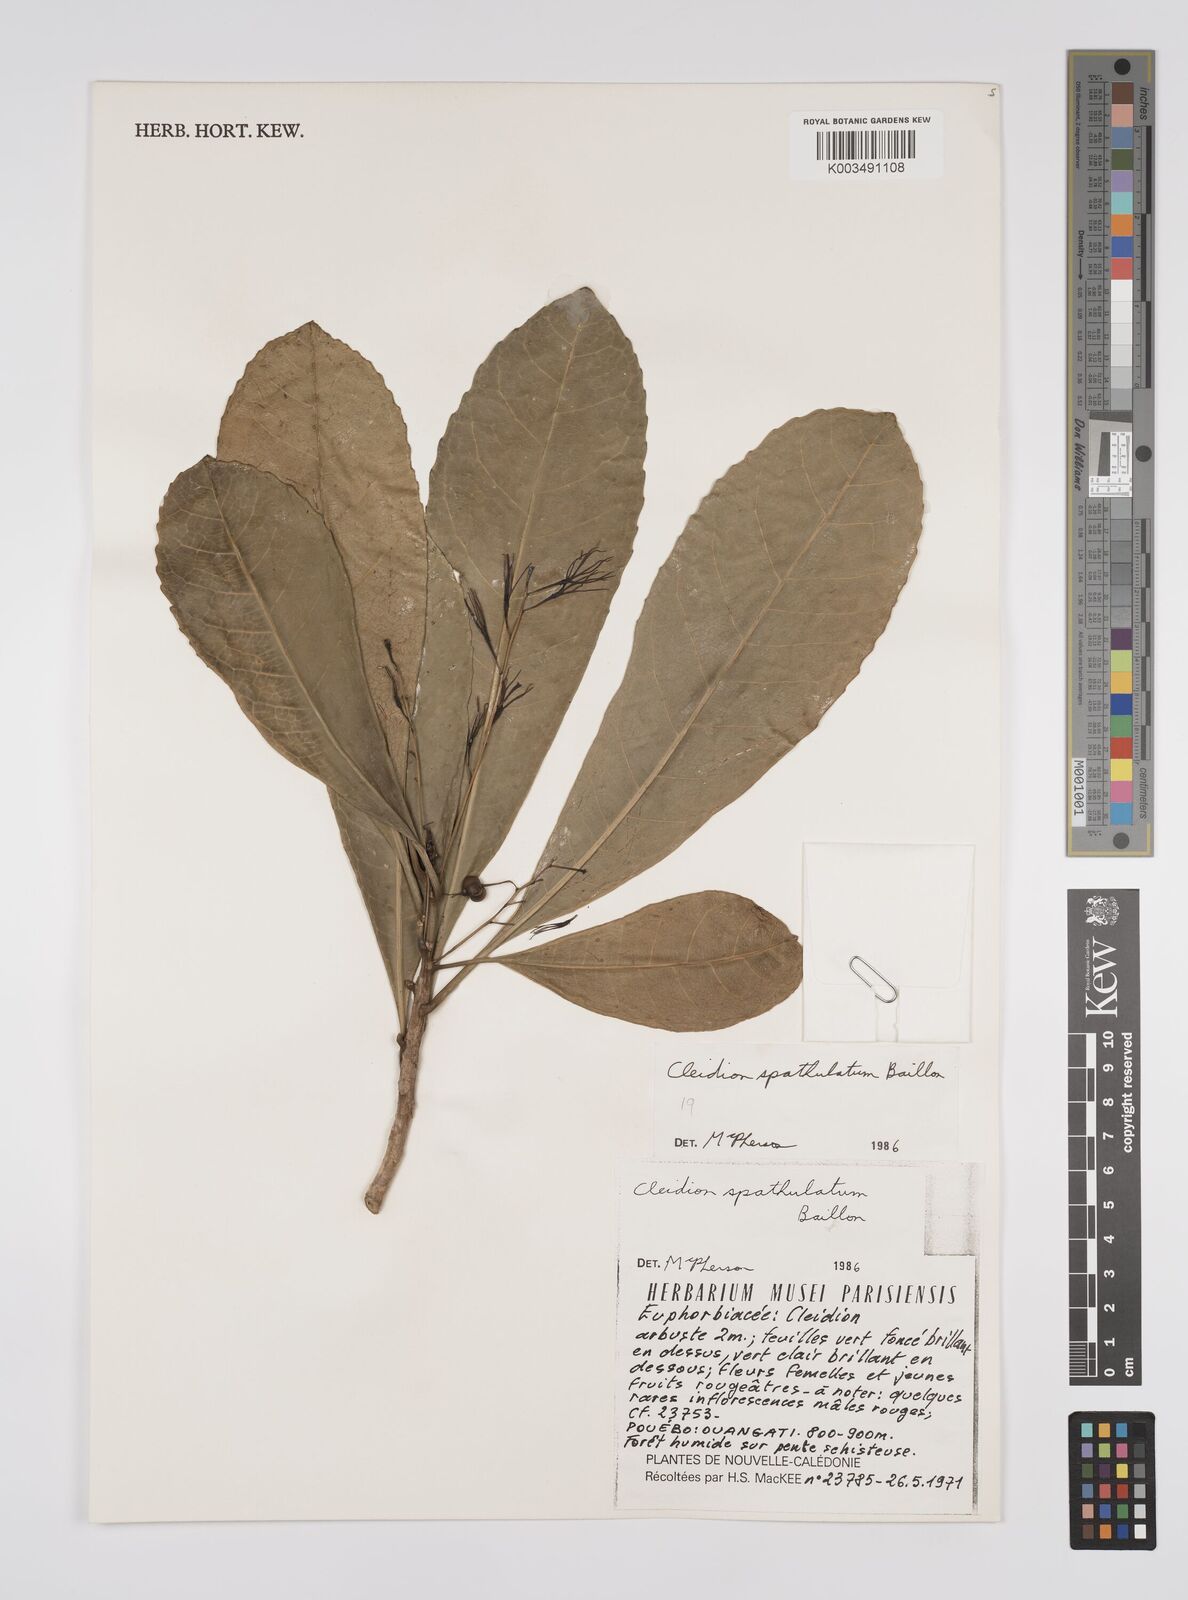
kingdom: Plantae
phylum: Tracheophyta
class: Magnoliopsida
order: Malpighiales
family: Euphorbiaceae
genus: Cleidion
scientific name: Cleidion spathulatum
